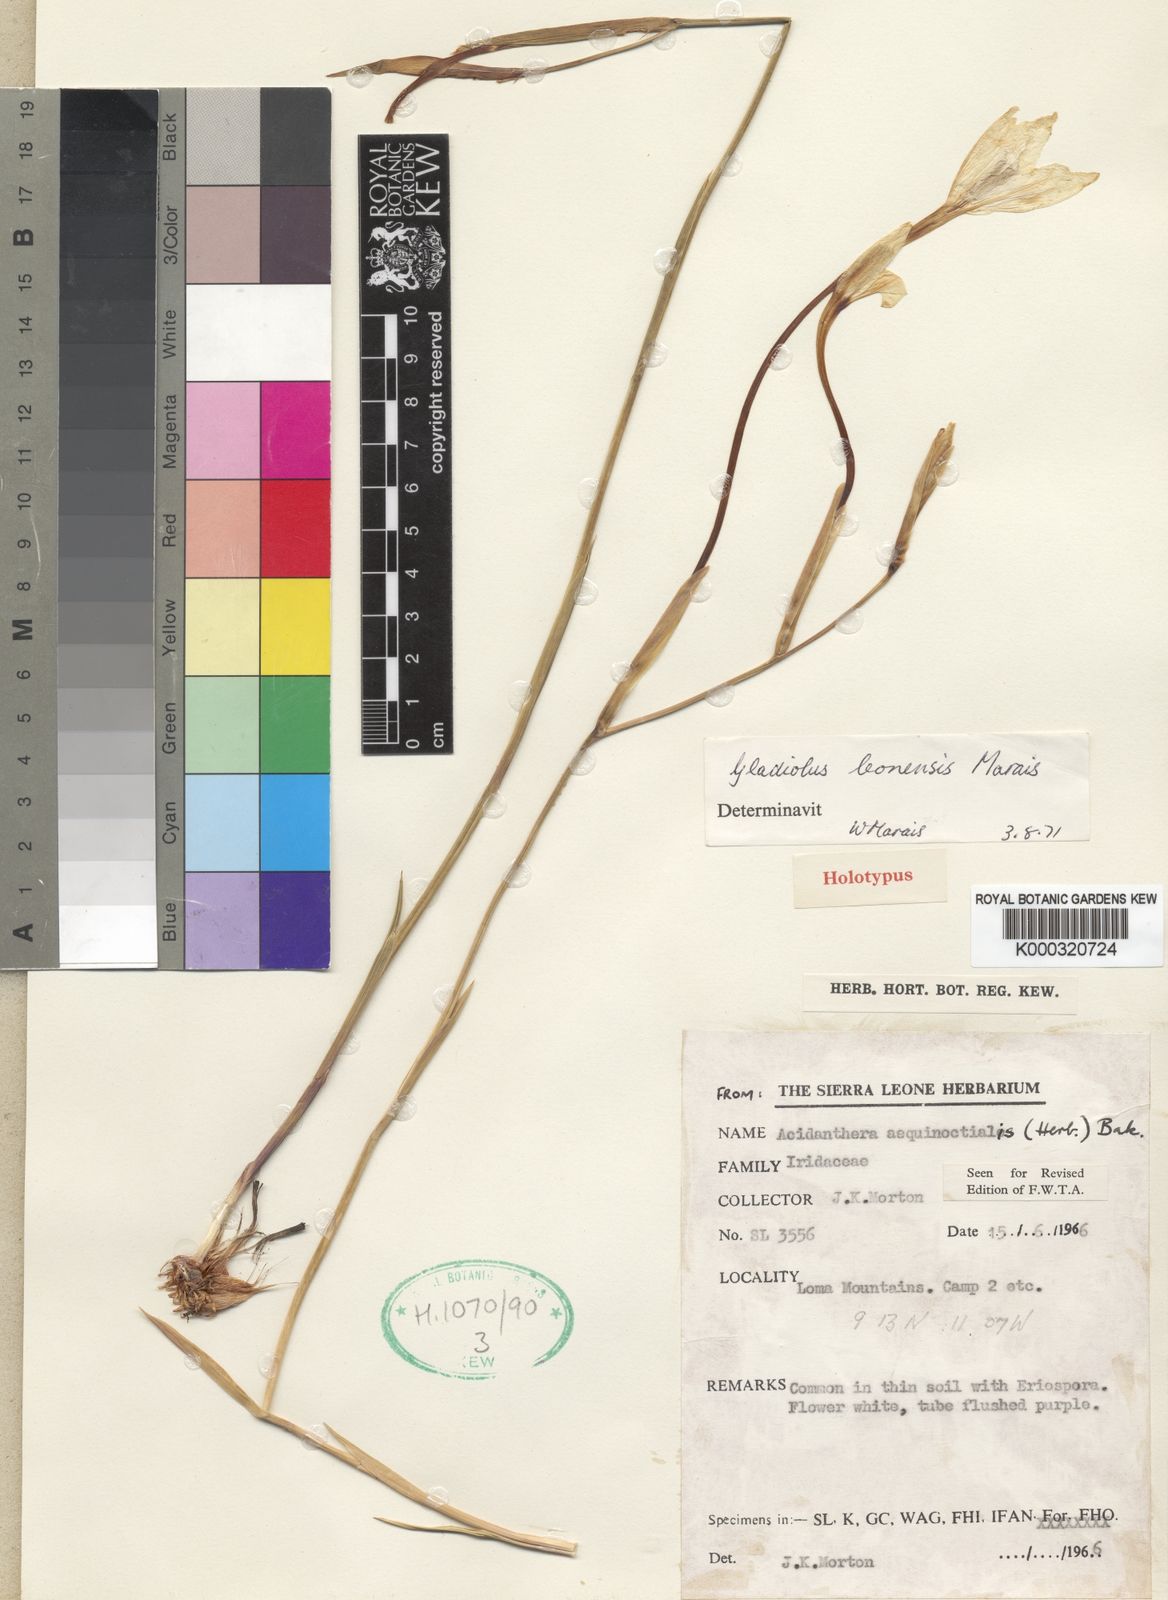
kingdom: Plantae
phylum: Tracheophyta
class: Liliopsida
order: Asparagales
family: Iridaceae
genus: Gladiolus
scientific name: Gladiolus leonensis
